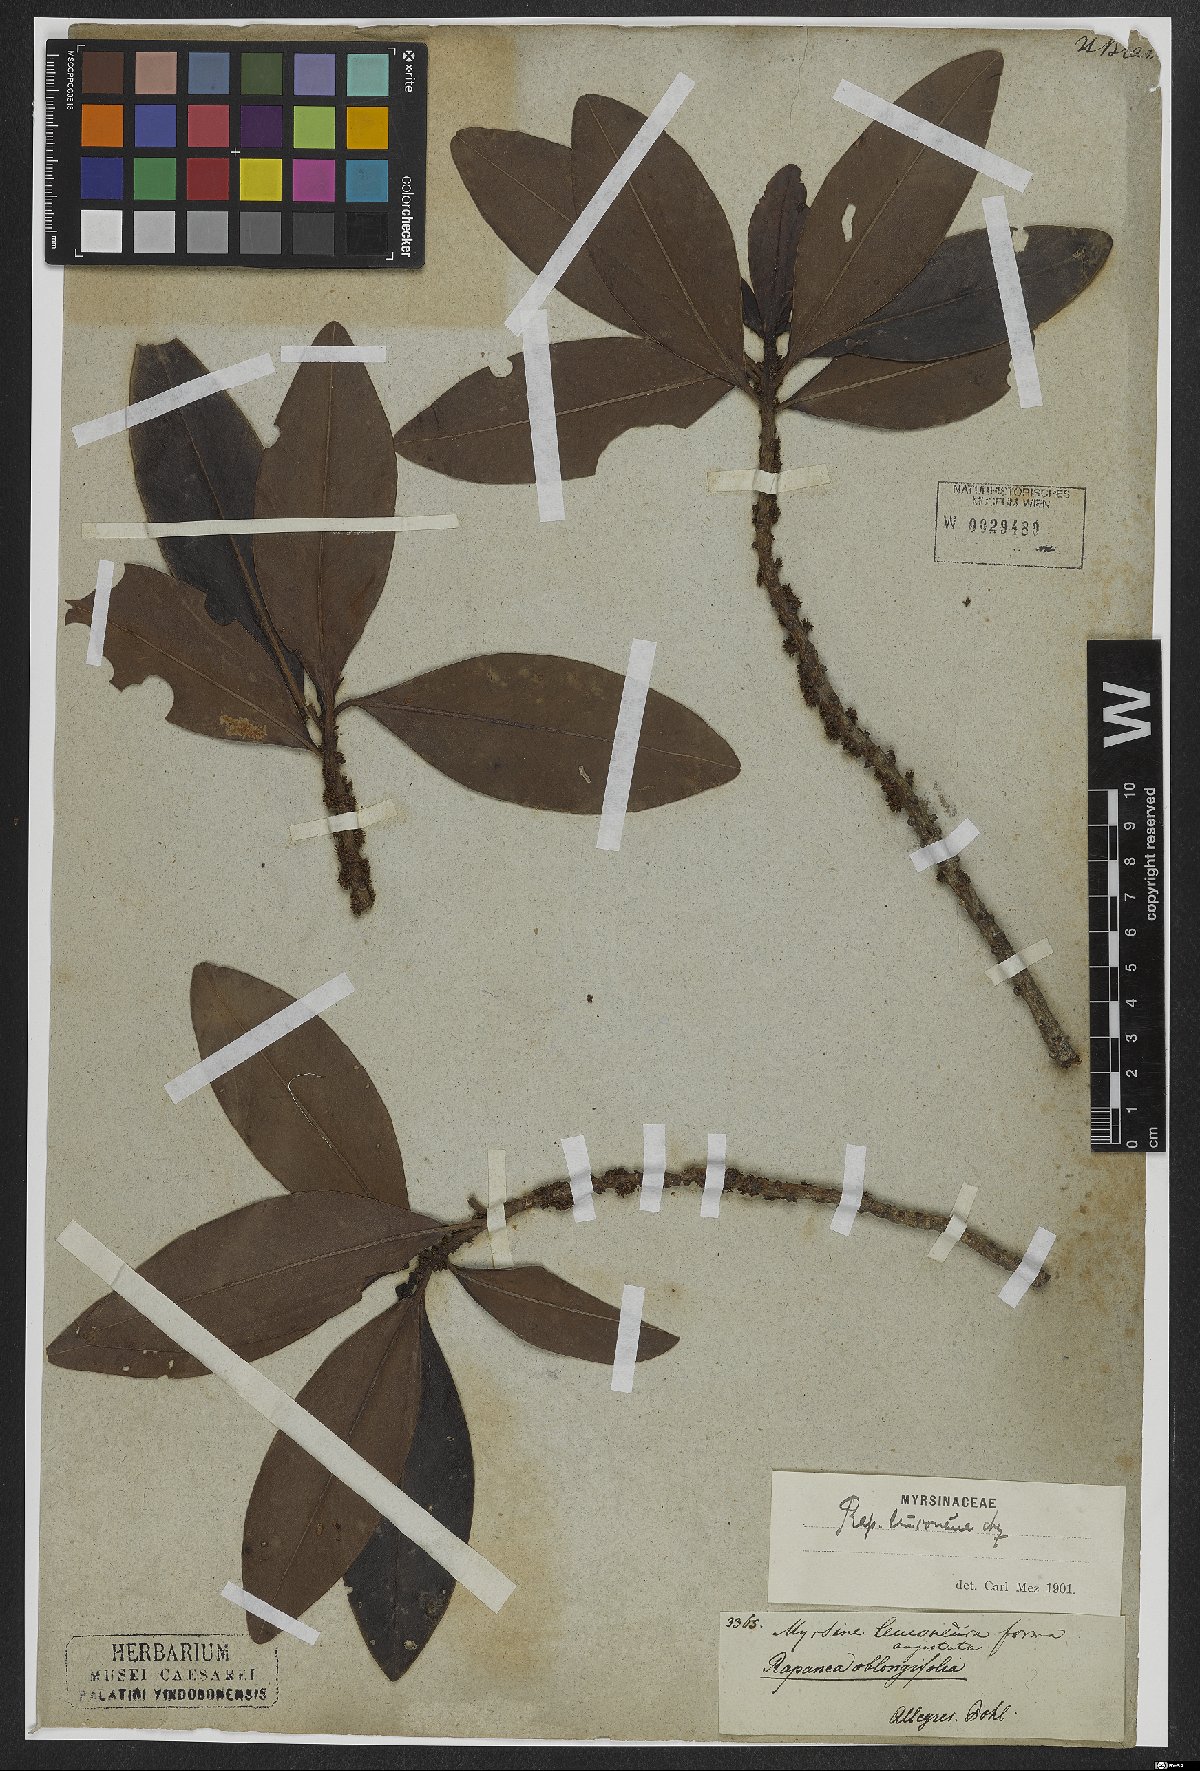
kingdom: Plantae
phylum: Tracheophyta
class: Magnoliopsida
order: Ericales
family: Primulaceae
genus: Myrsine
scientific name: Myrsine leuconeura
